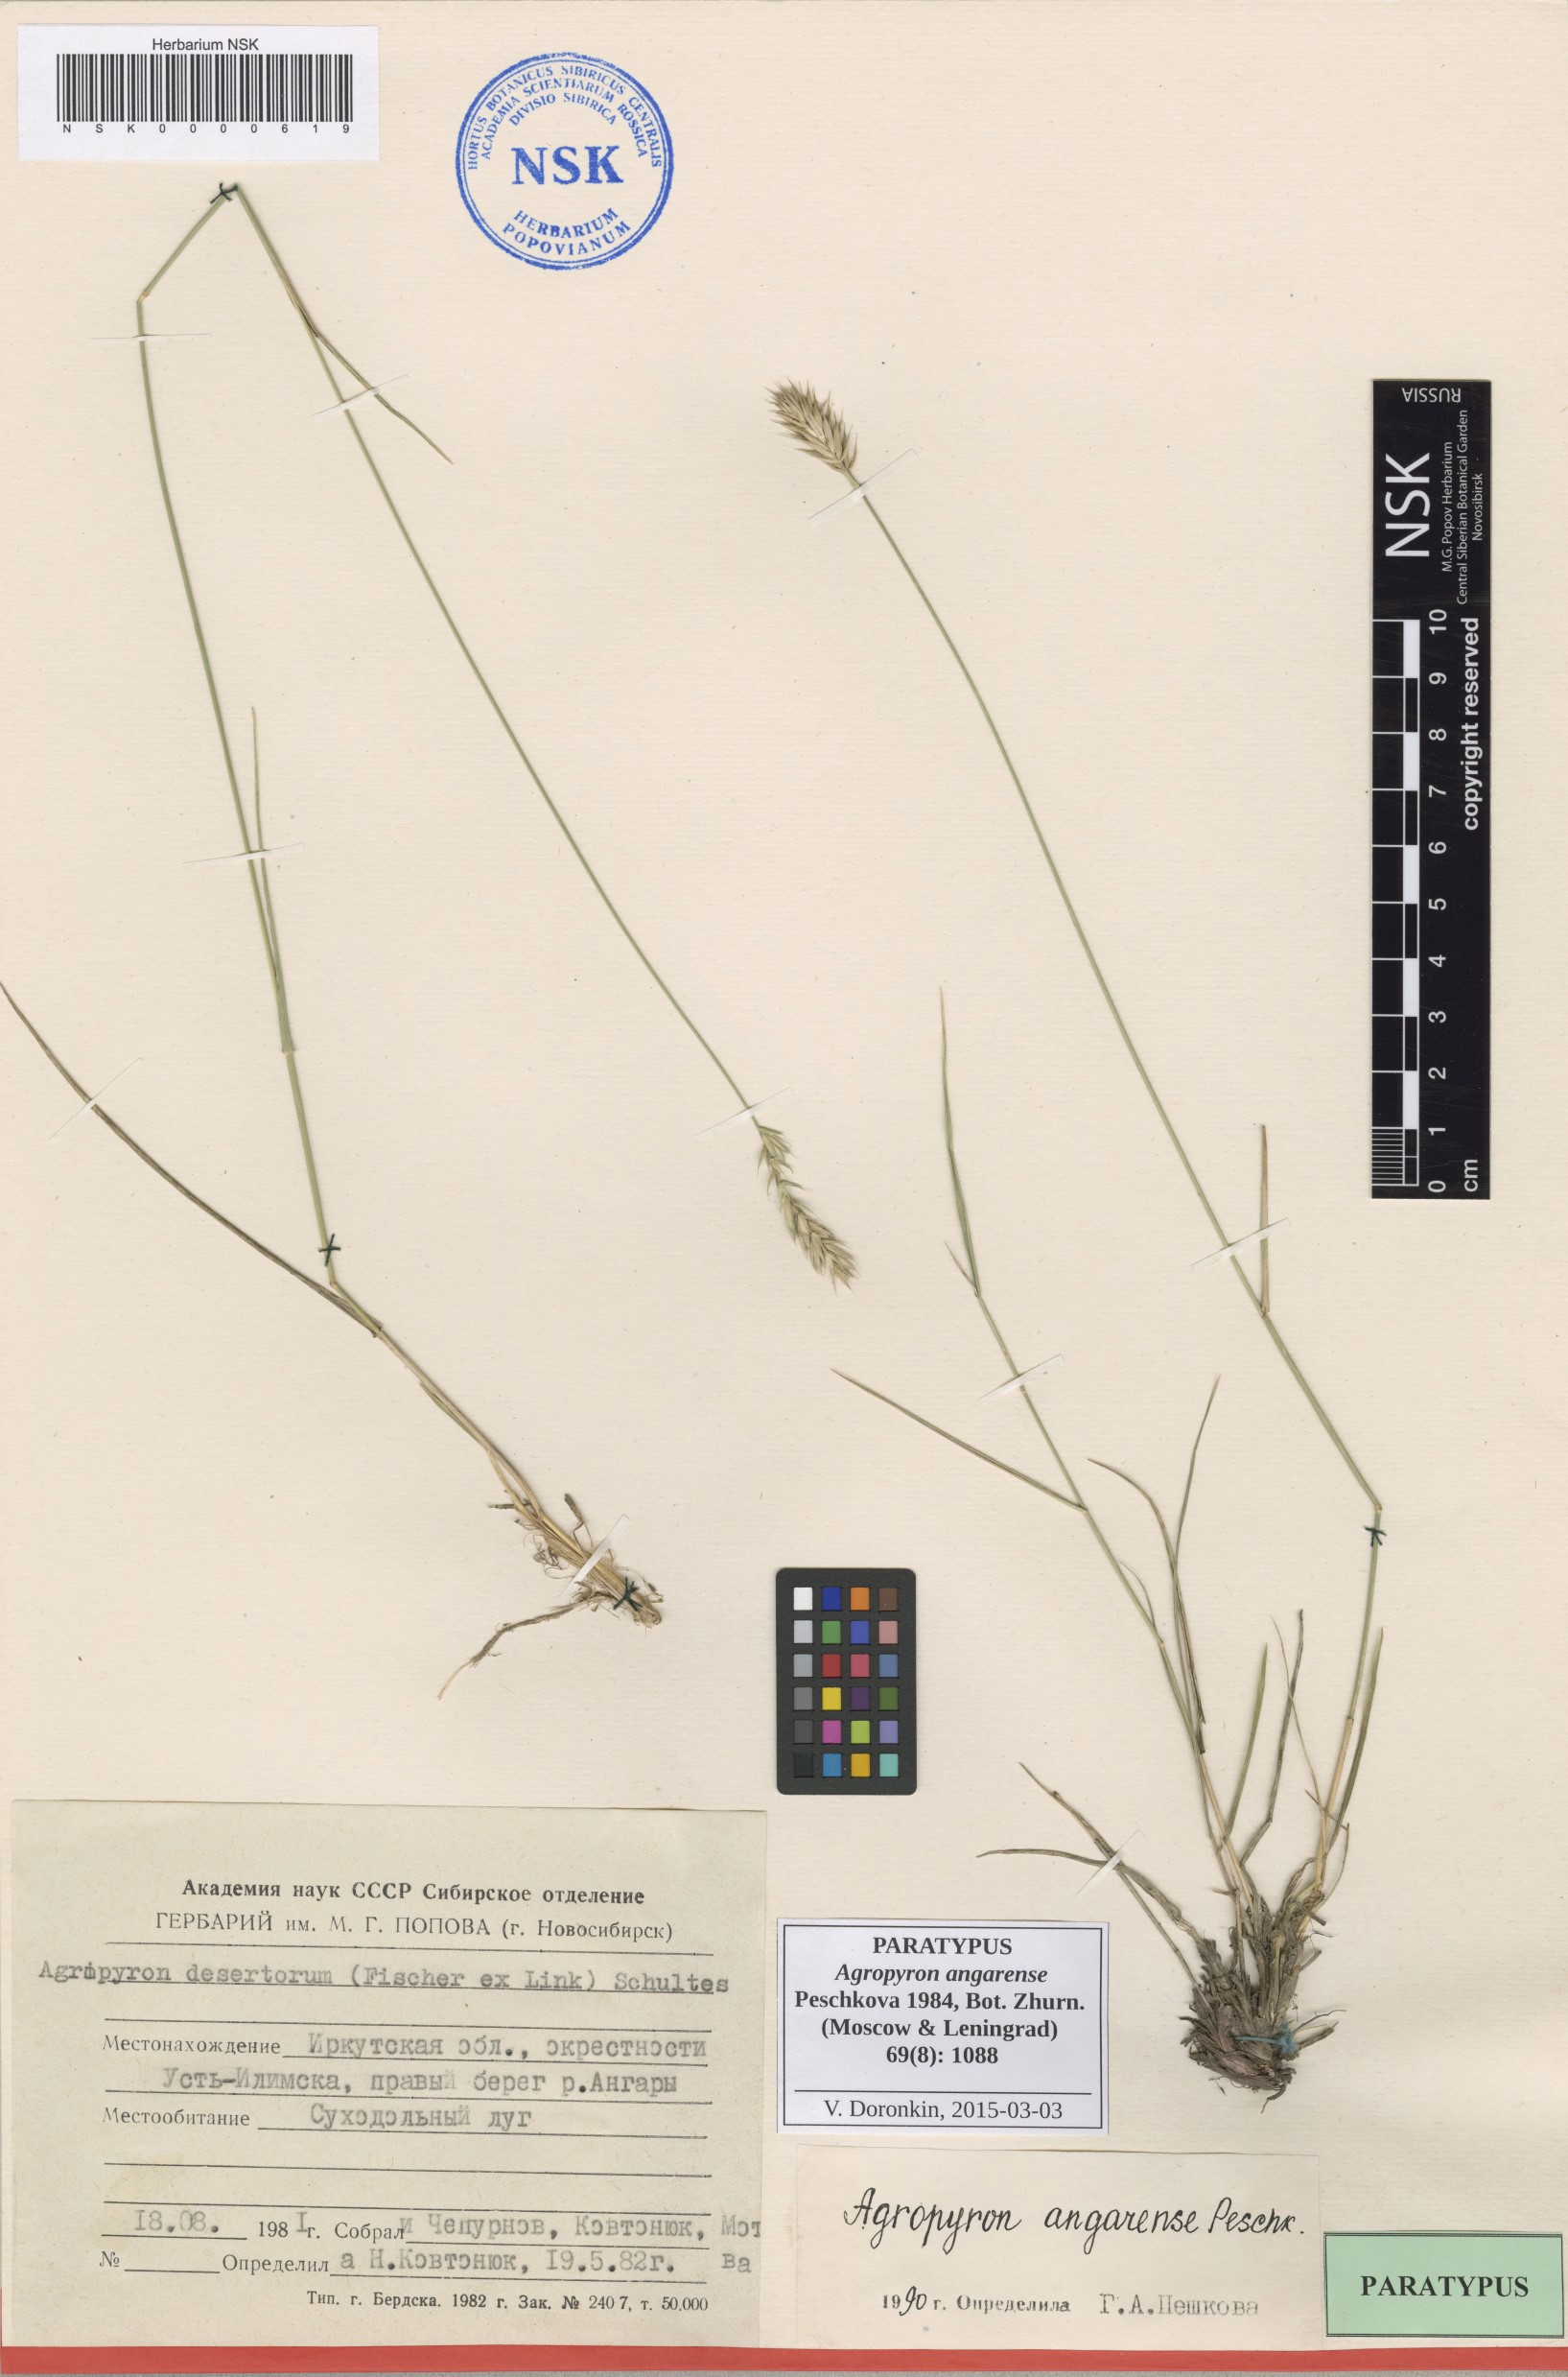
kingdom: Plantae
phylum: Tracheophyta
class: Liliopsida
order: Poales
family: Poaceae
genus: Agropyron
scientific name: Agropyron desertorum
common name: Desert wheatgrass
